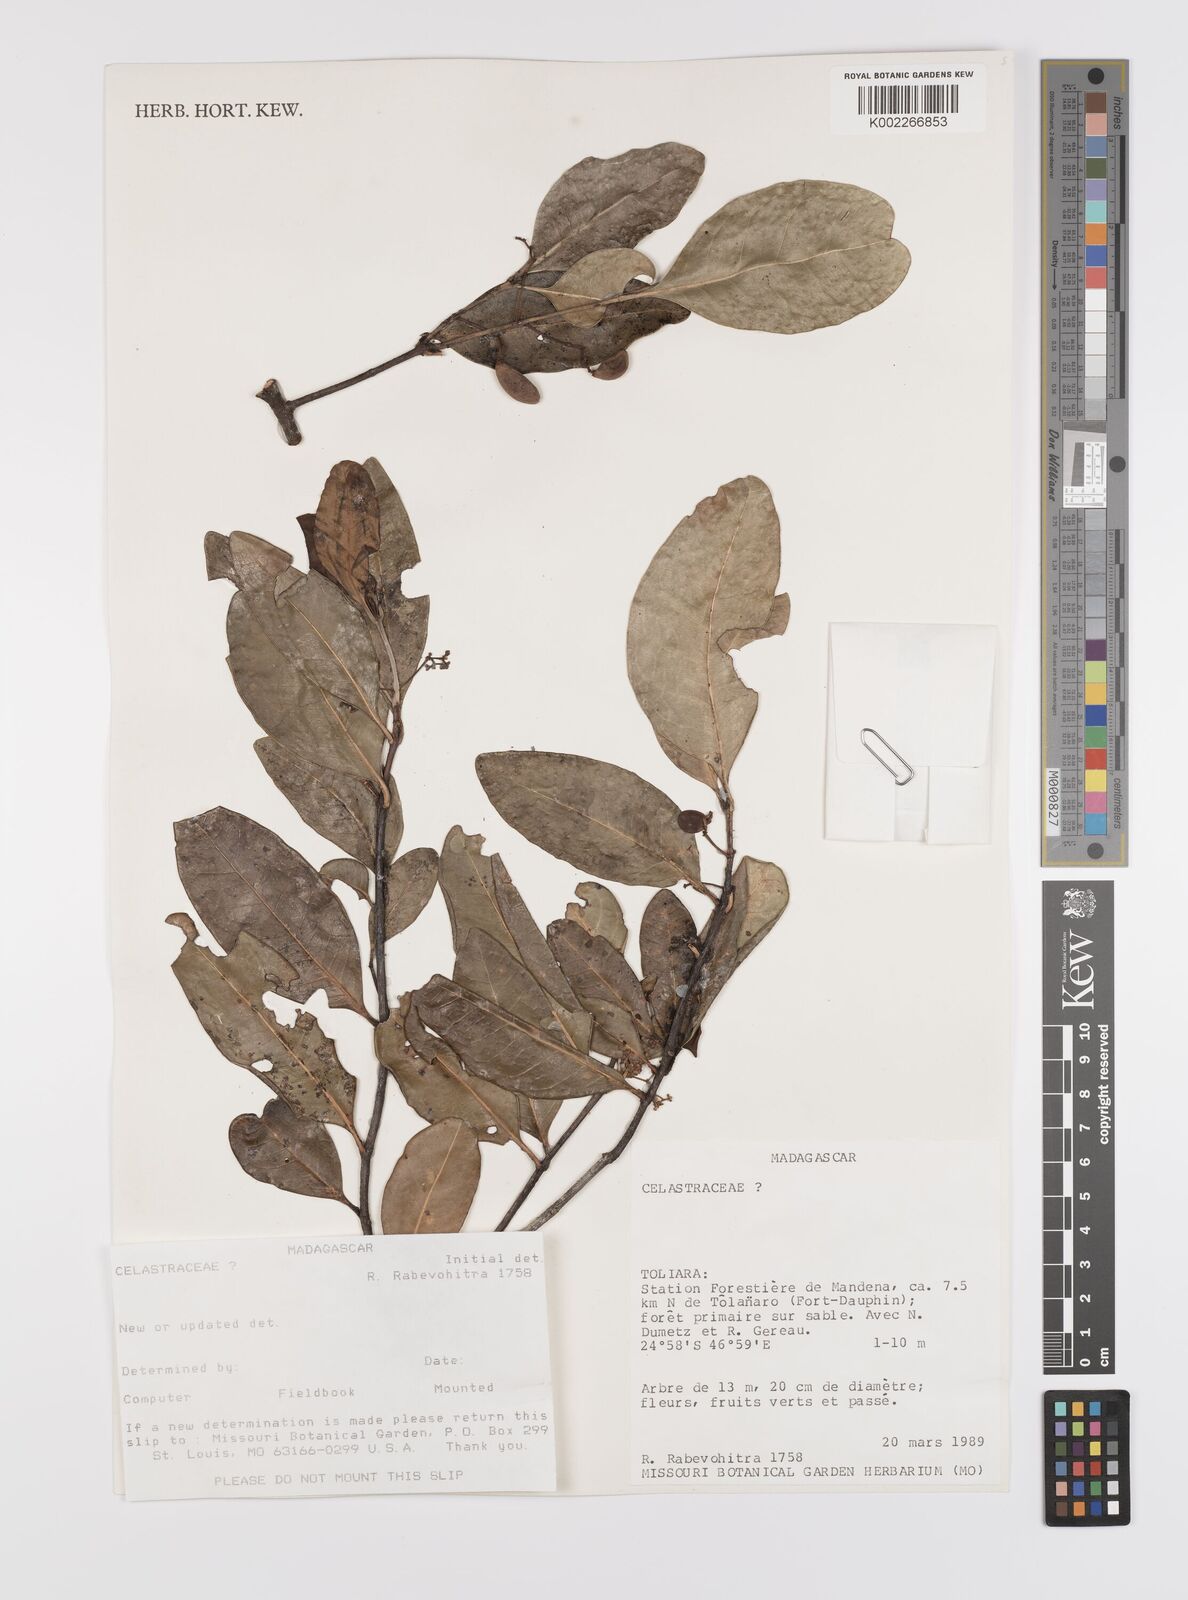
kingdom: Plantae
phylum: Tracheophyta
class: Magnoliopsida
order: Celastrales
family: Celastraceae
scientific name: Celastraceae
